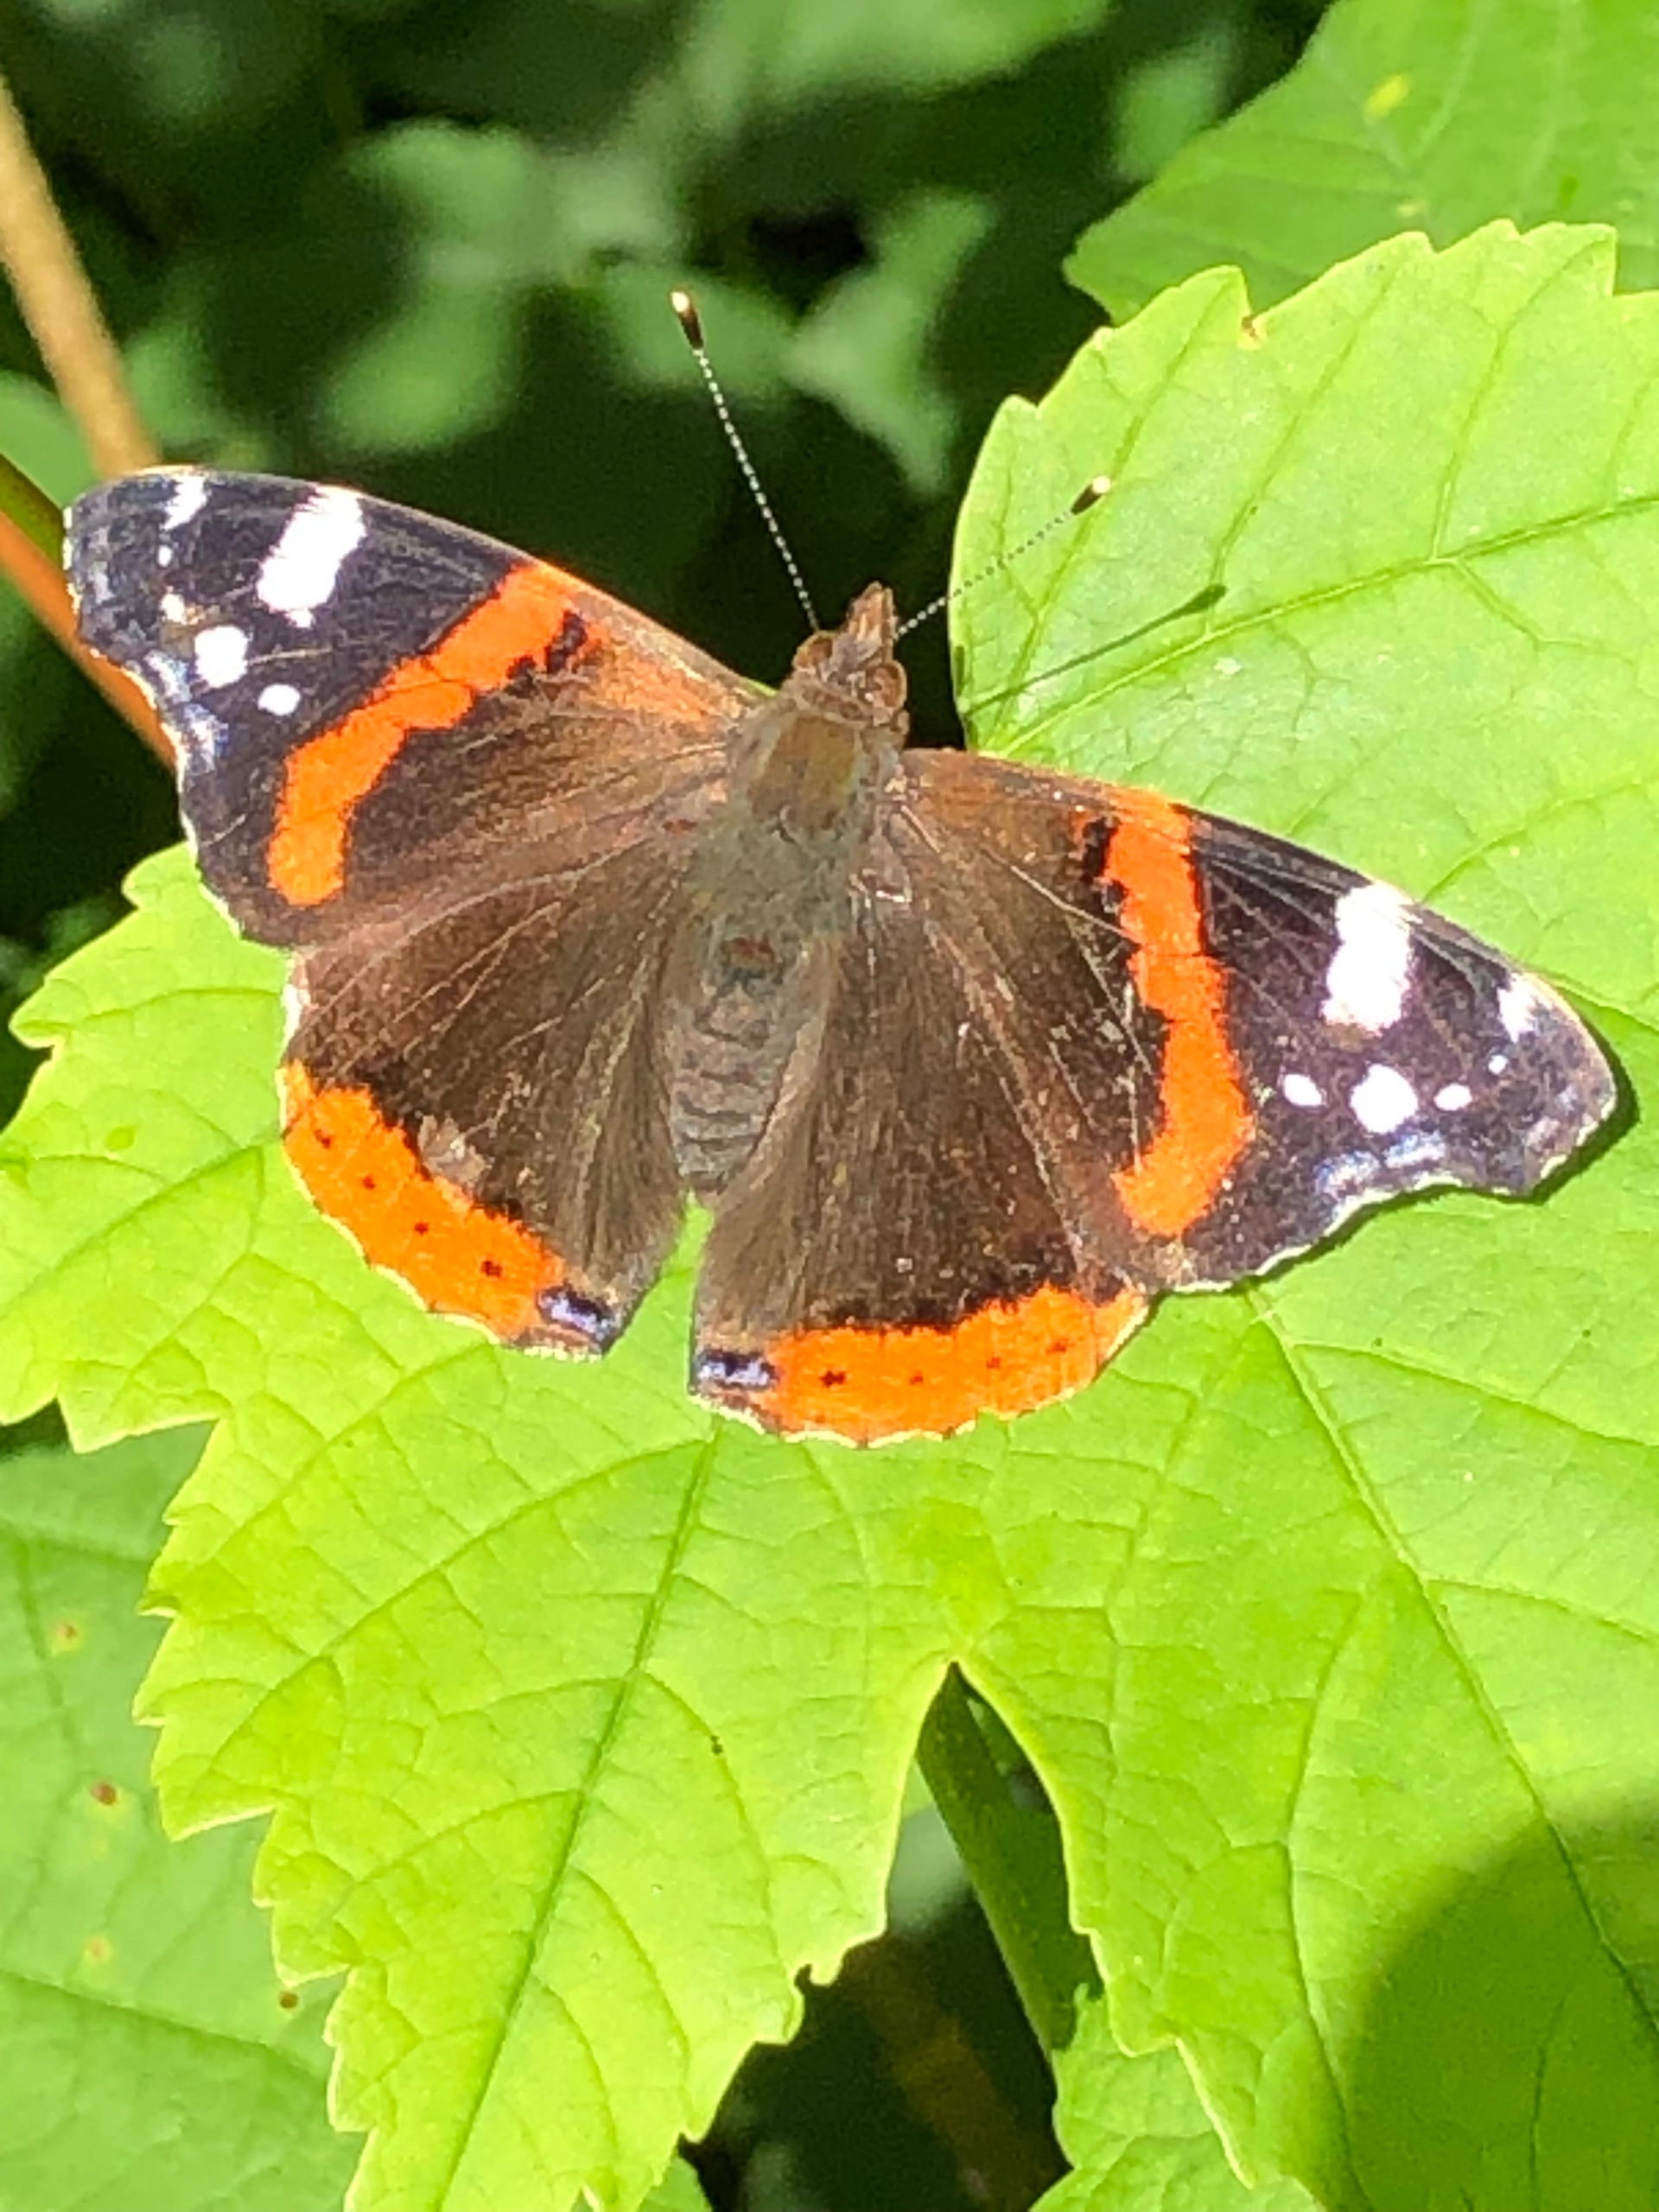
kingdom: Animalia
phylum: Arthropoda
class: Insecta
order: Lepidoptera
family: Nymphalidae
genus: Vanessa
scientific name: Vanessa atalanta
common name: Admiral
